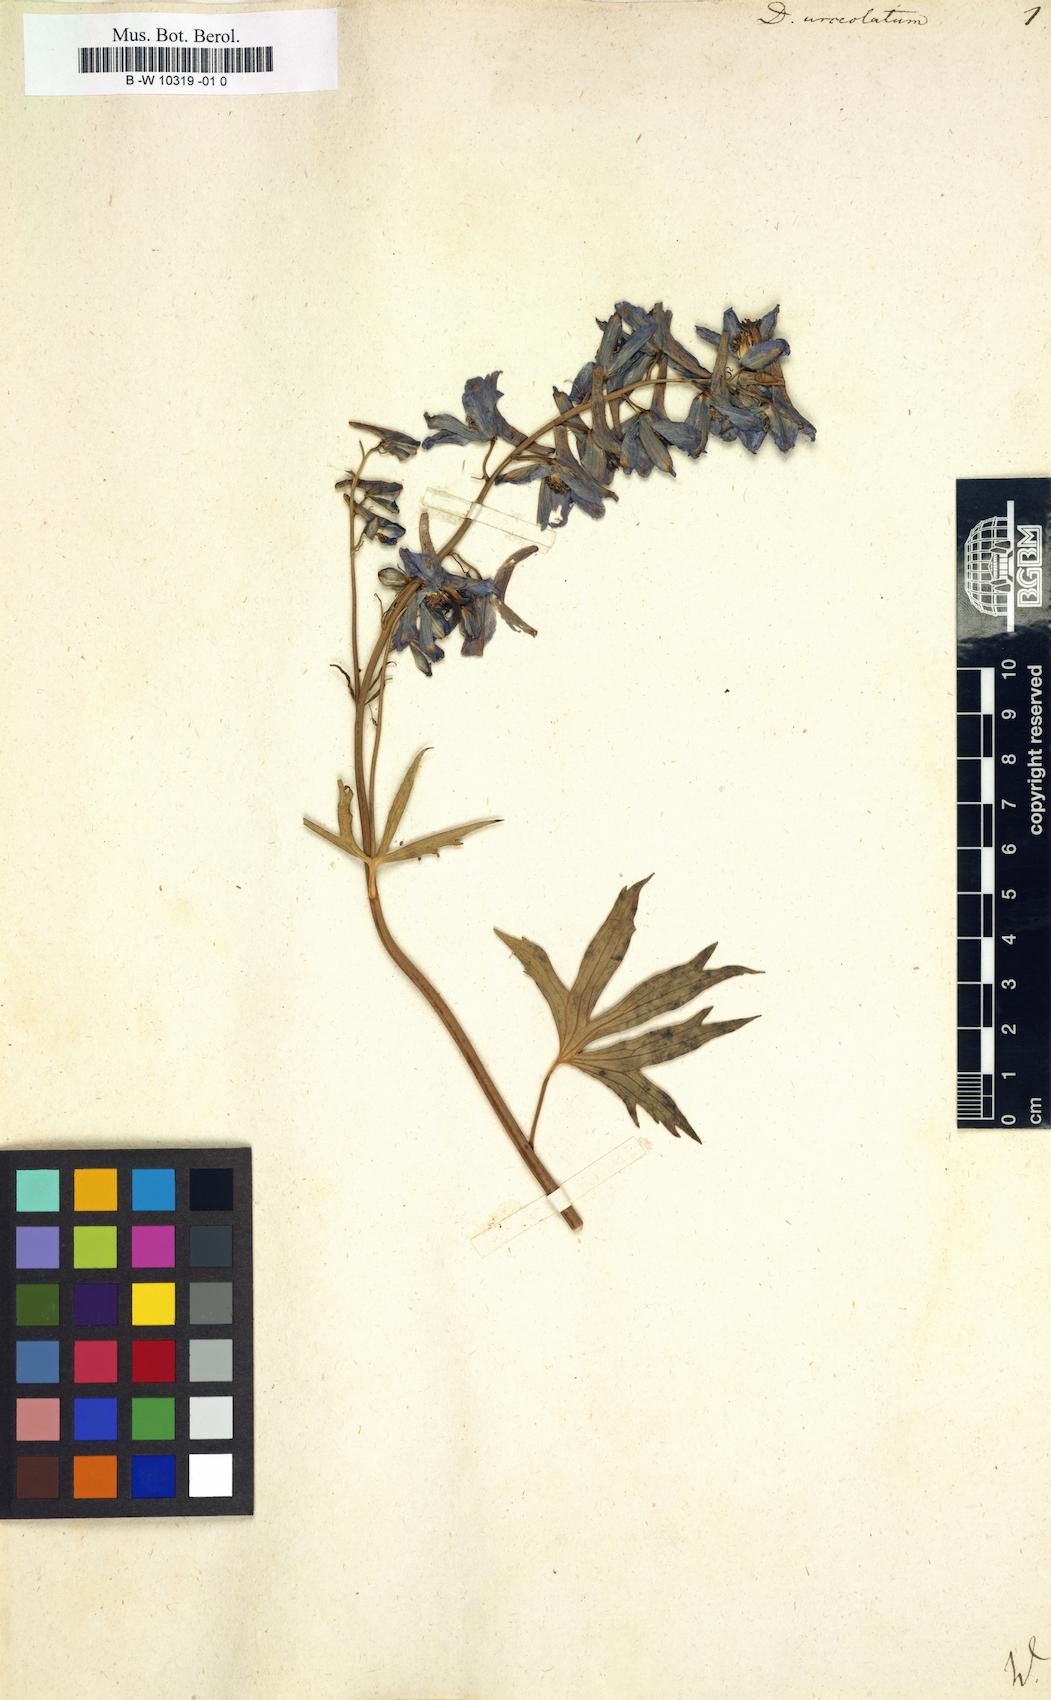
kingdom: Plantae
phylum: Tracheophyta
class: Magnoliopsida
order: Ranunculales
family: Ranunculaceae
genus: Delphinium
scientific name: Delphinium elatum
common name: Candle larkspur
